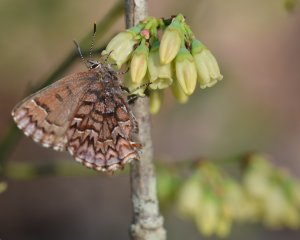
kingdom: Animalia
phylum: Arthropoda
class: Insecta
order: Lepidoptera
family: Lycaenidae
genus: Incisalia
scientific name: Incisalia niphon
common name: Eastern Pine Elfin
